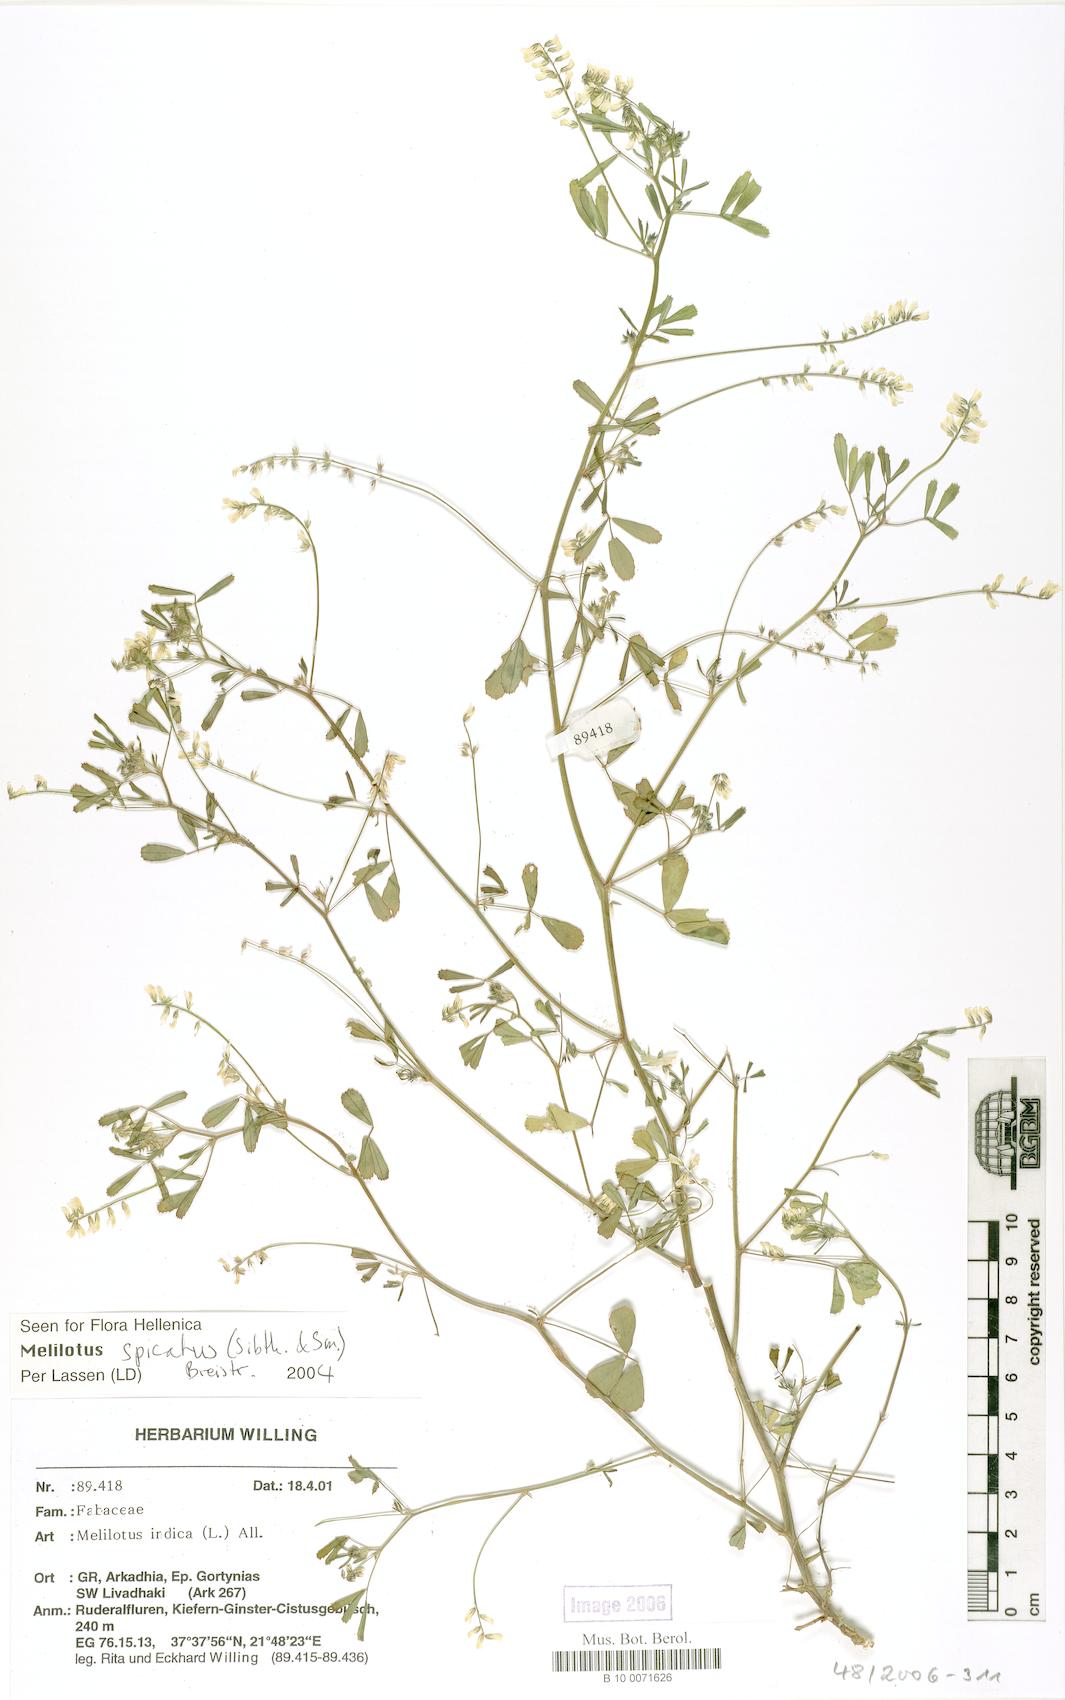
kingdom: Plantae
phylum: Tracheophyta
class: Magnoliopsida
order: Fabales
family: Fabaceae
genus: Melilotus
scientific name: Melilotus indicus
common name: Small melilot
